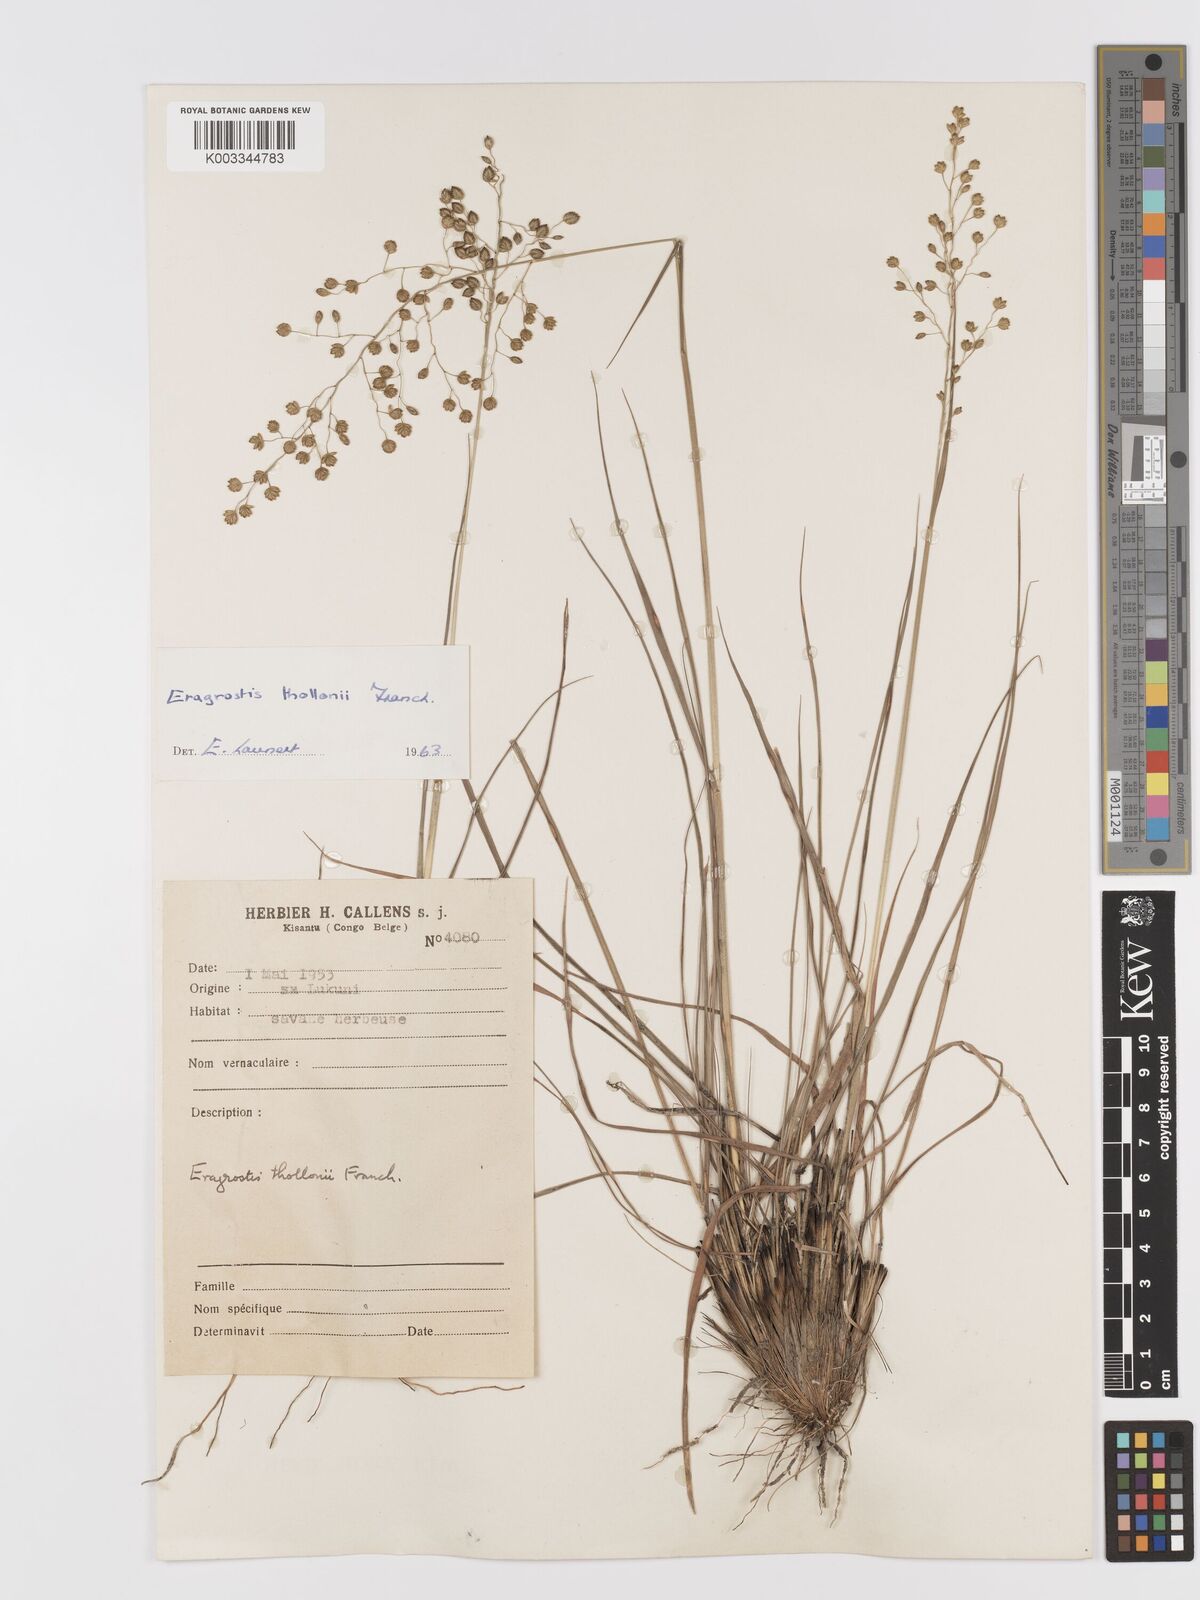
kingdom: Plantae
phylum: Tracheophyta
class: Liliopsida
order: Poales
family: Poaceae
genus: Eragrostis
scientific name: Eragrostis thollonii
